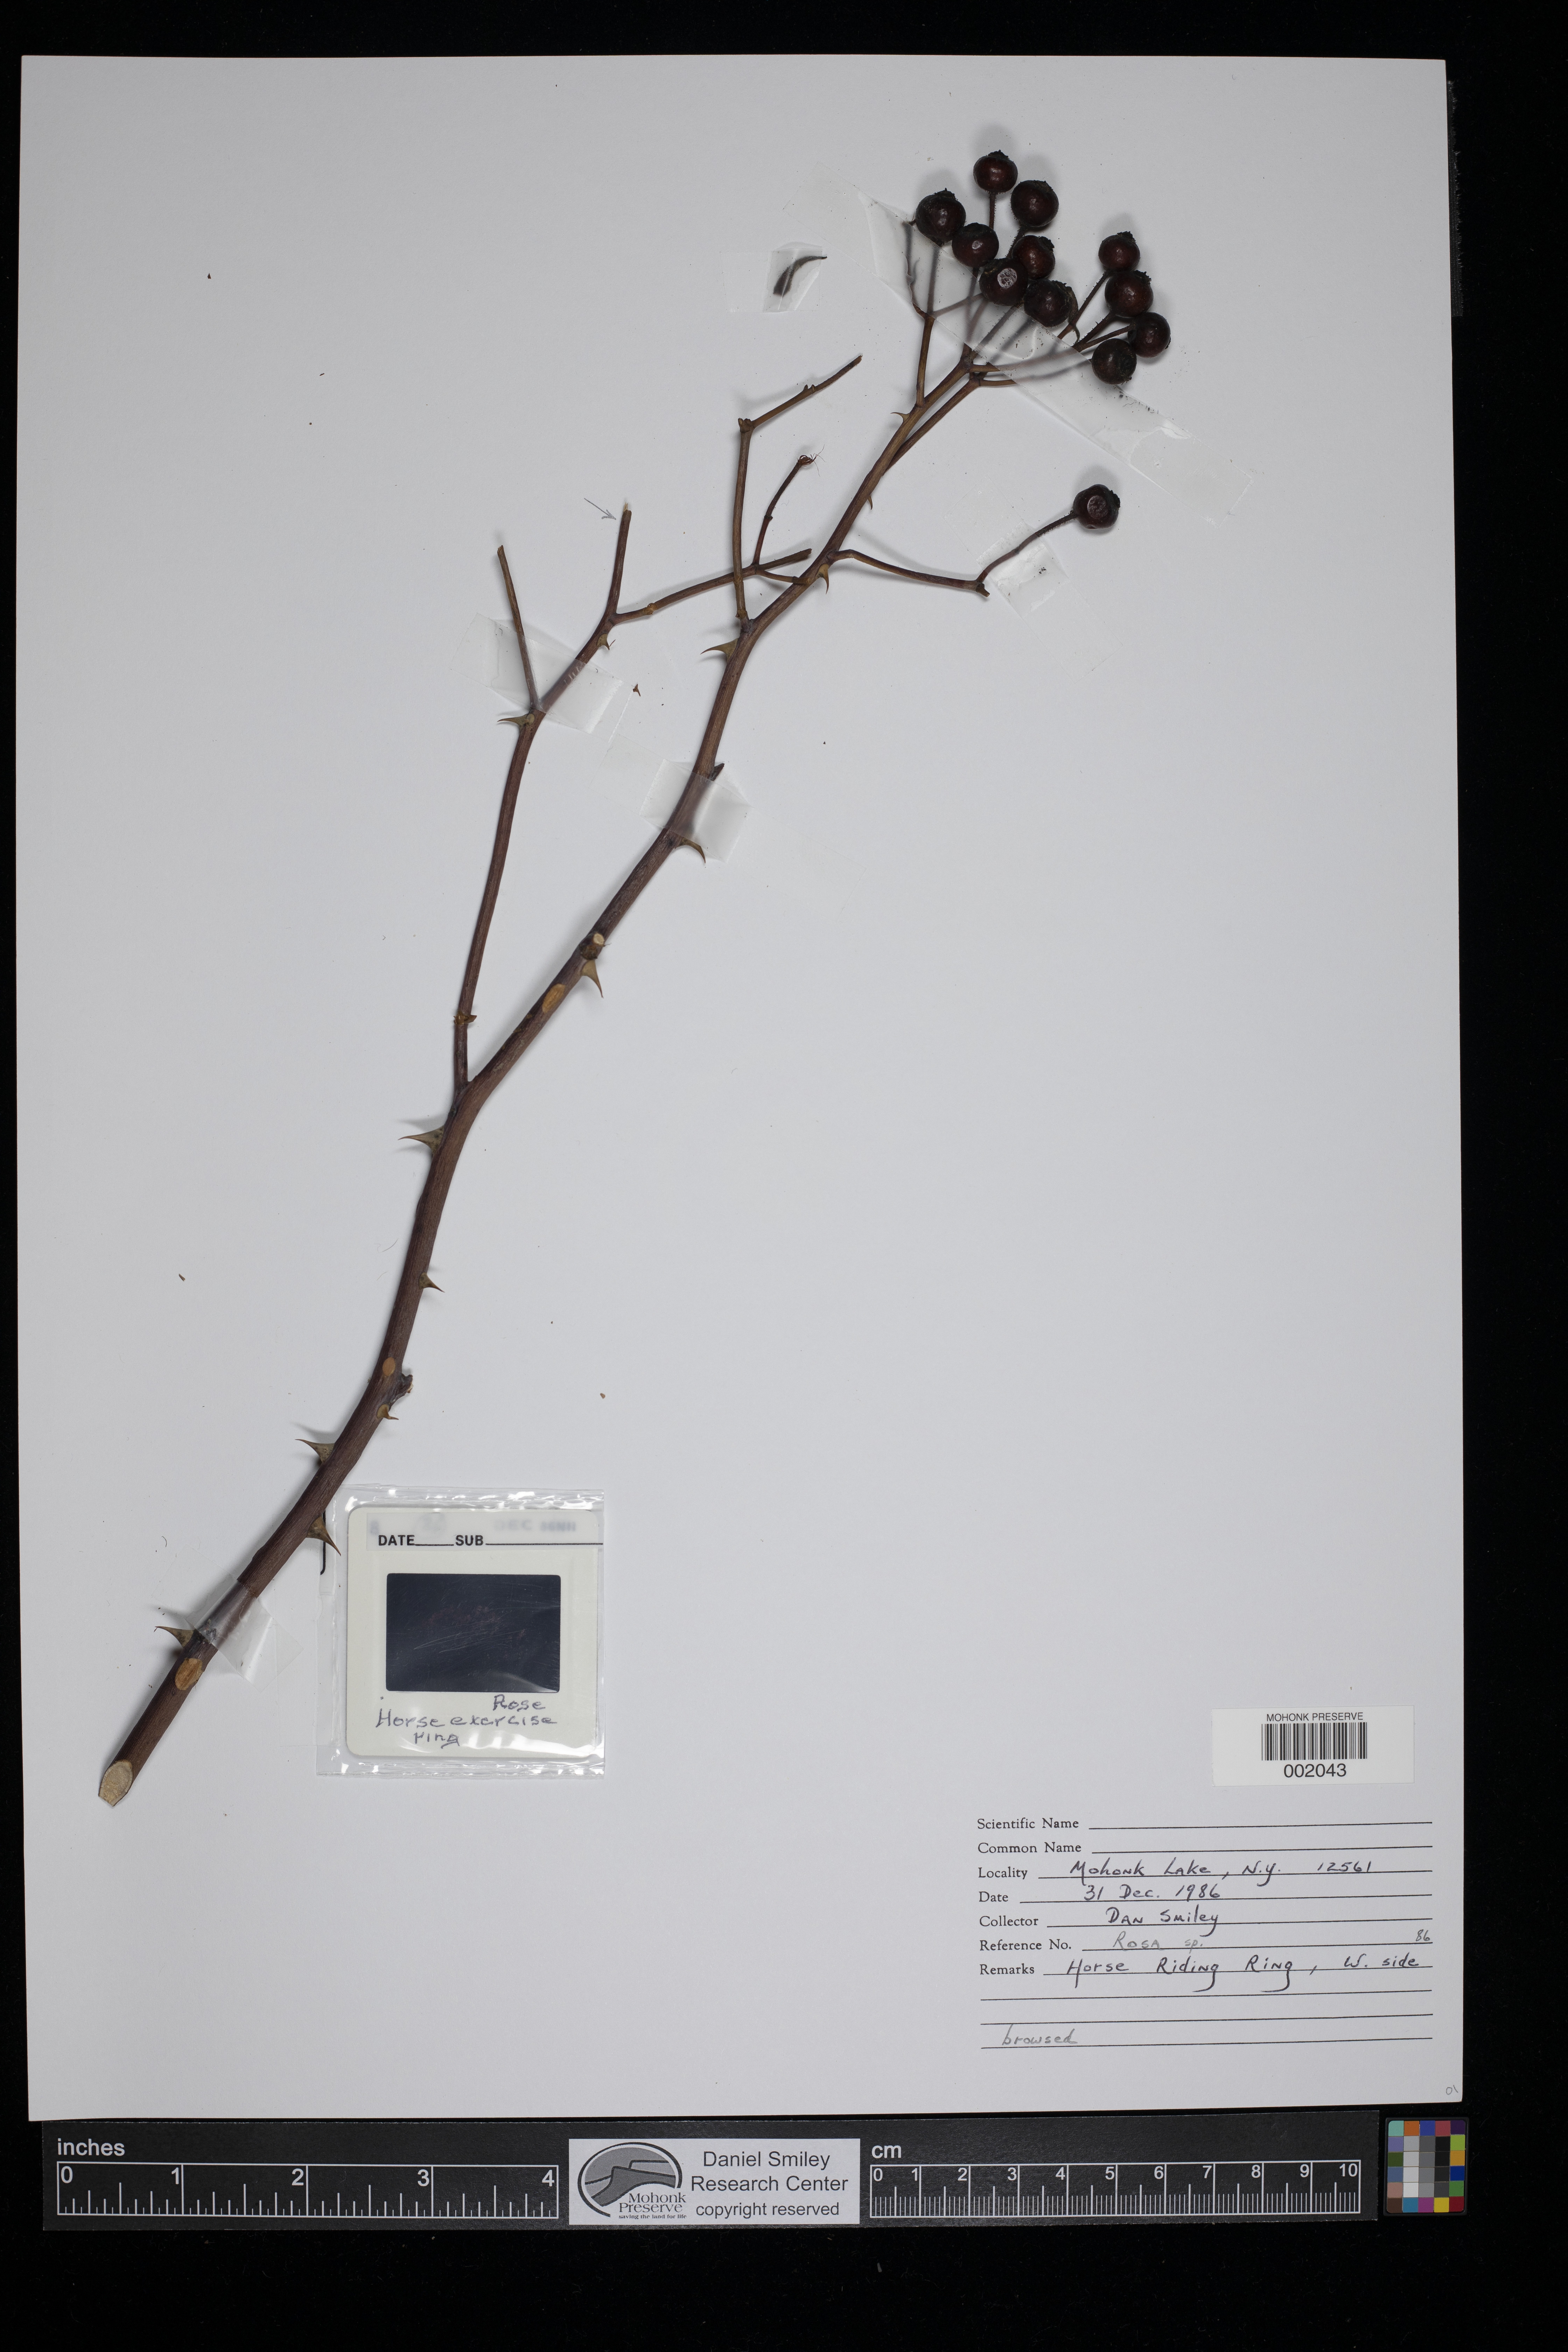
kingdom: Plantae
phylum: Tracheophyta
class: Magnoliopsida
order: Rosales
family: Rosaceae
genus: Rosa
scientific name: Rosa
